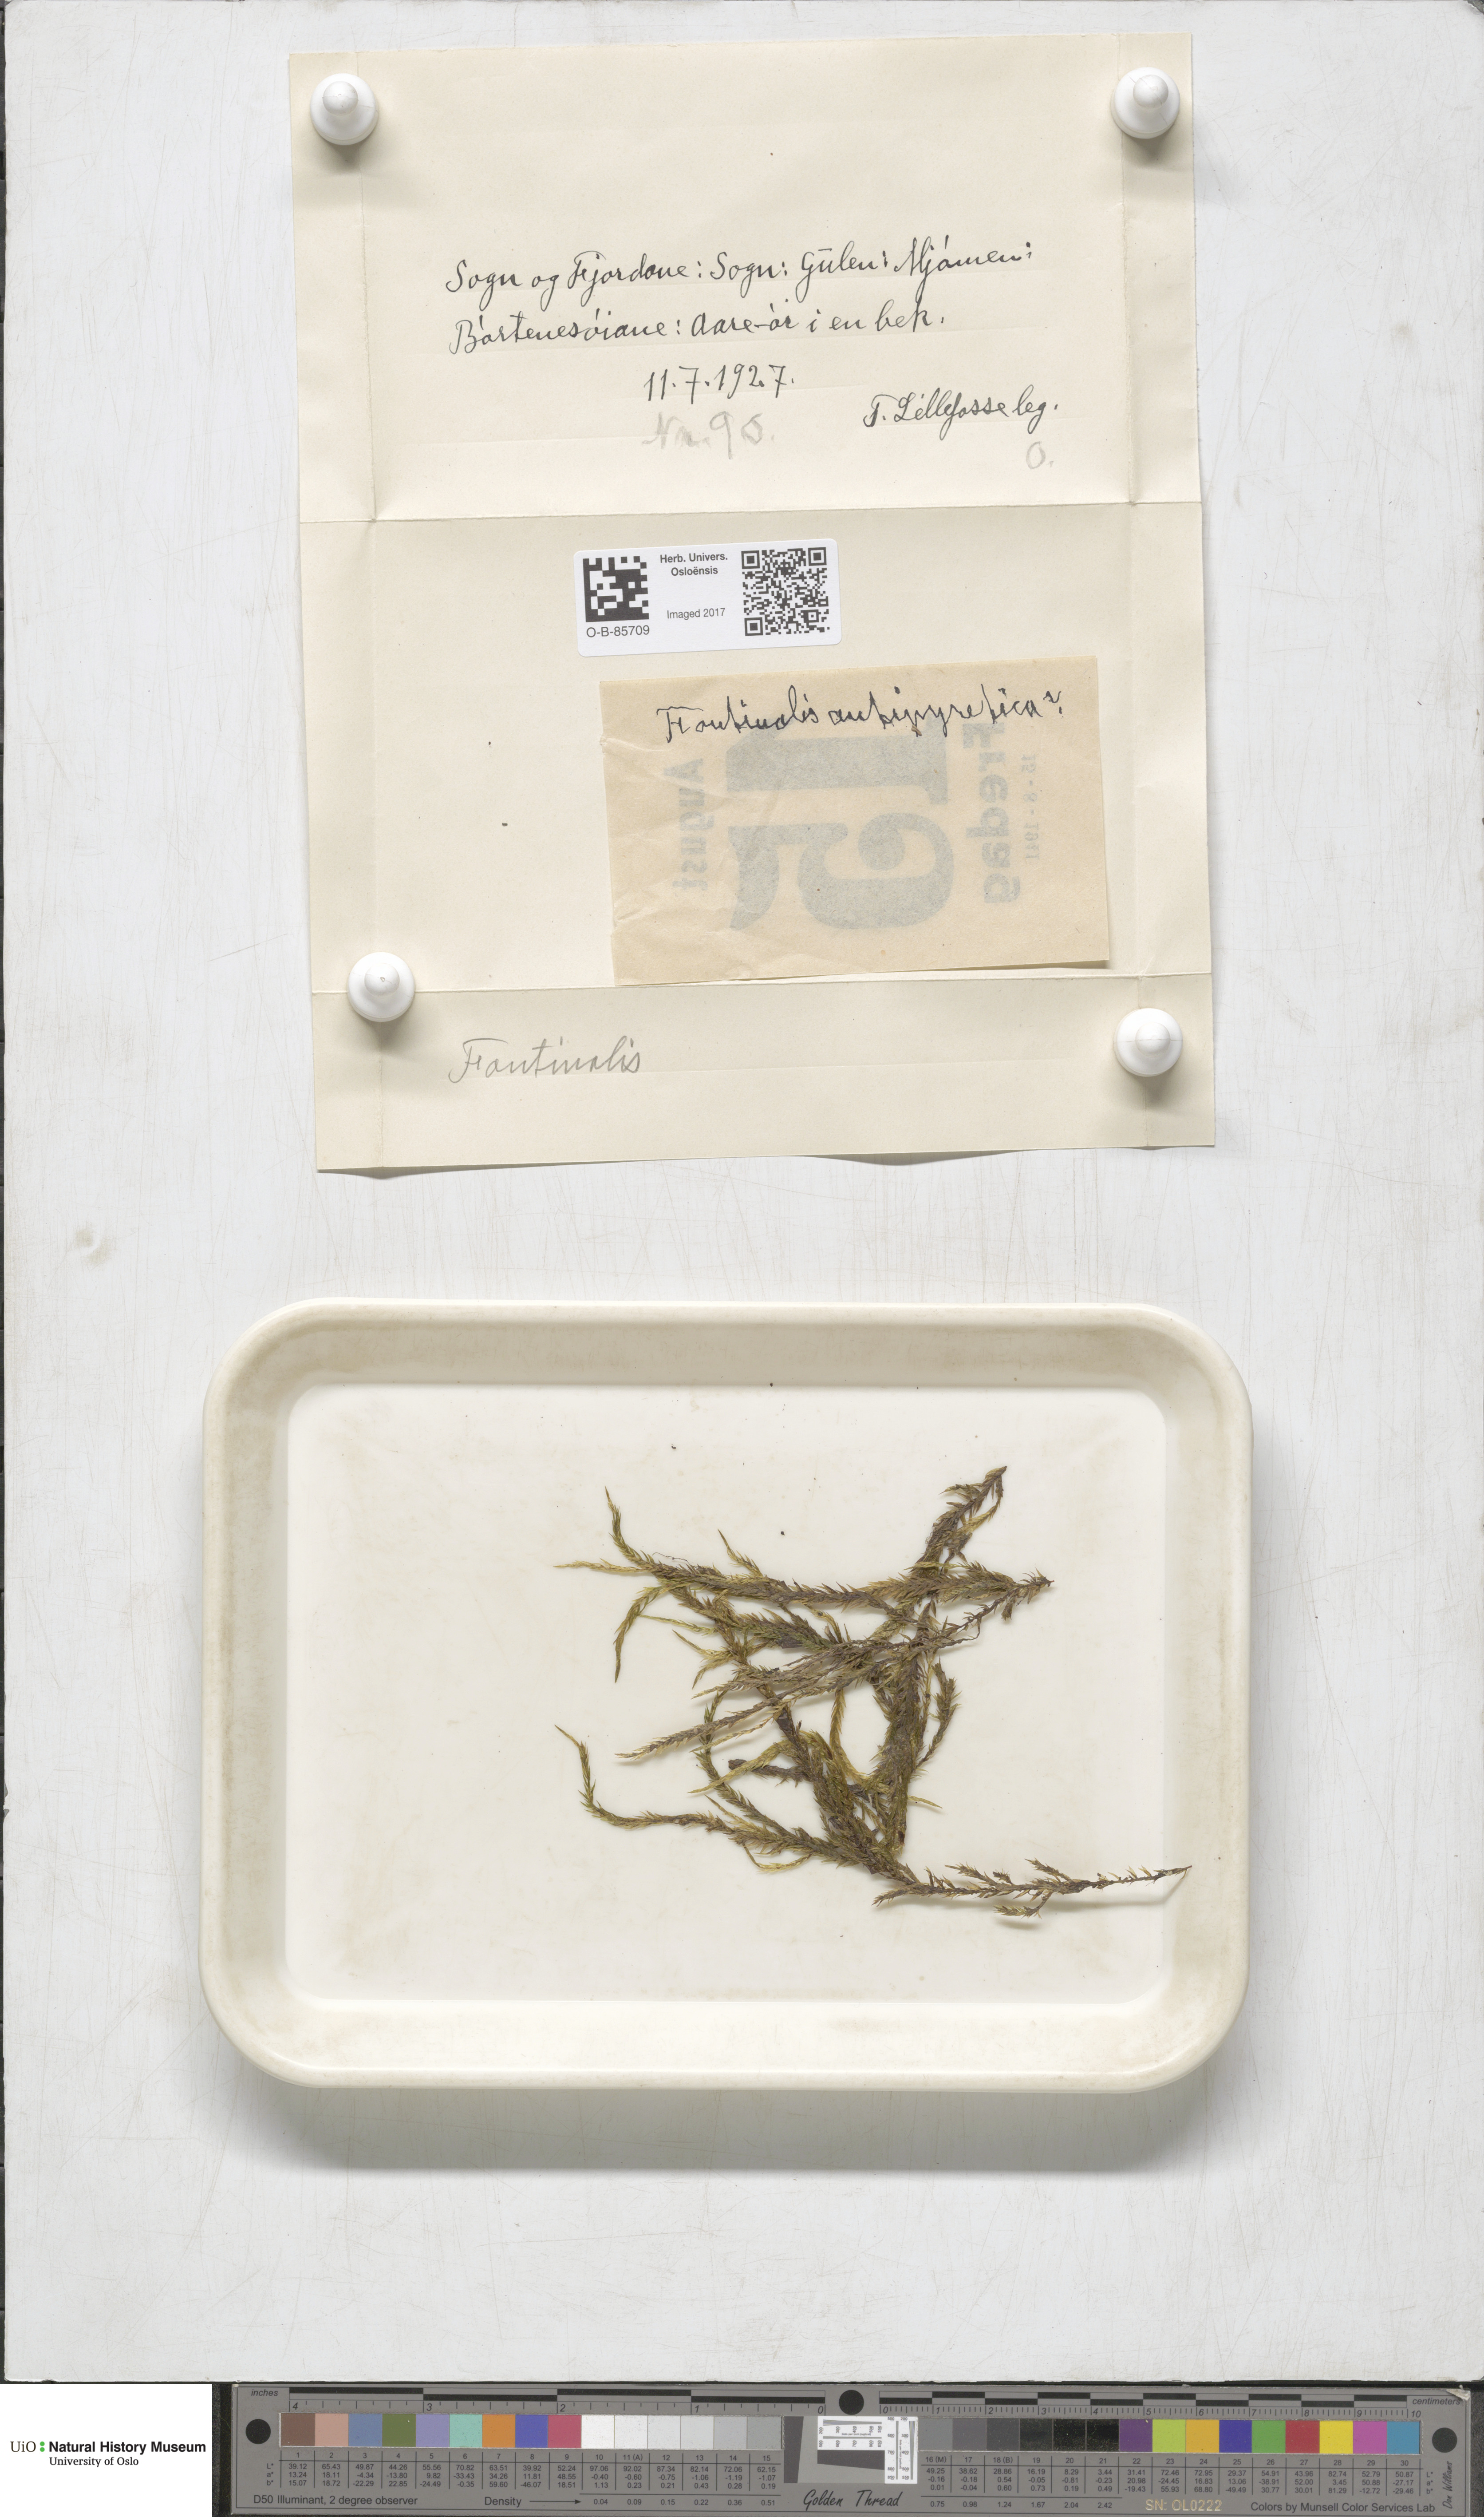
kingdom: Plantae
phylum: Bryophyta
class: Bryopsida
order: Hypnales
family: Fontinalaceae
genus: Fontinalis
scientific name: Fontinalis
